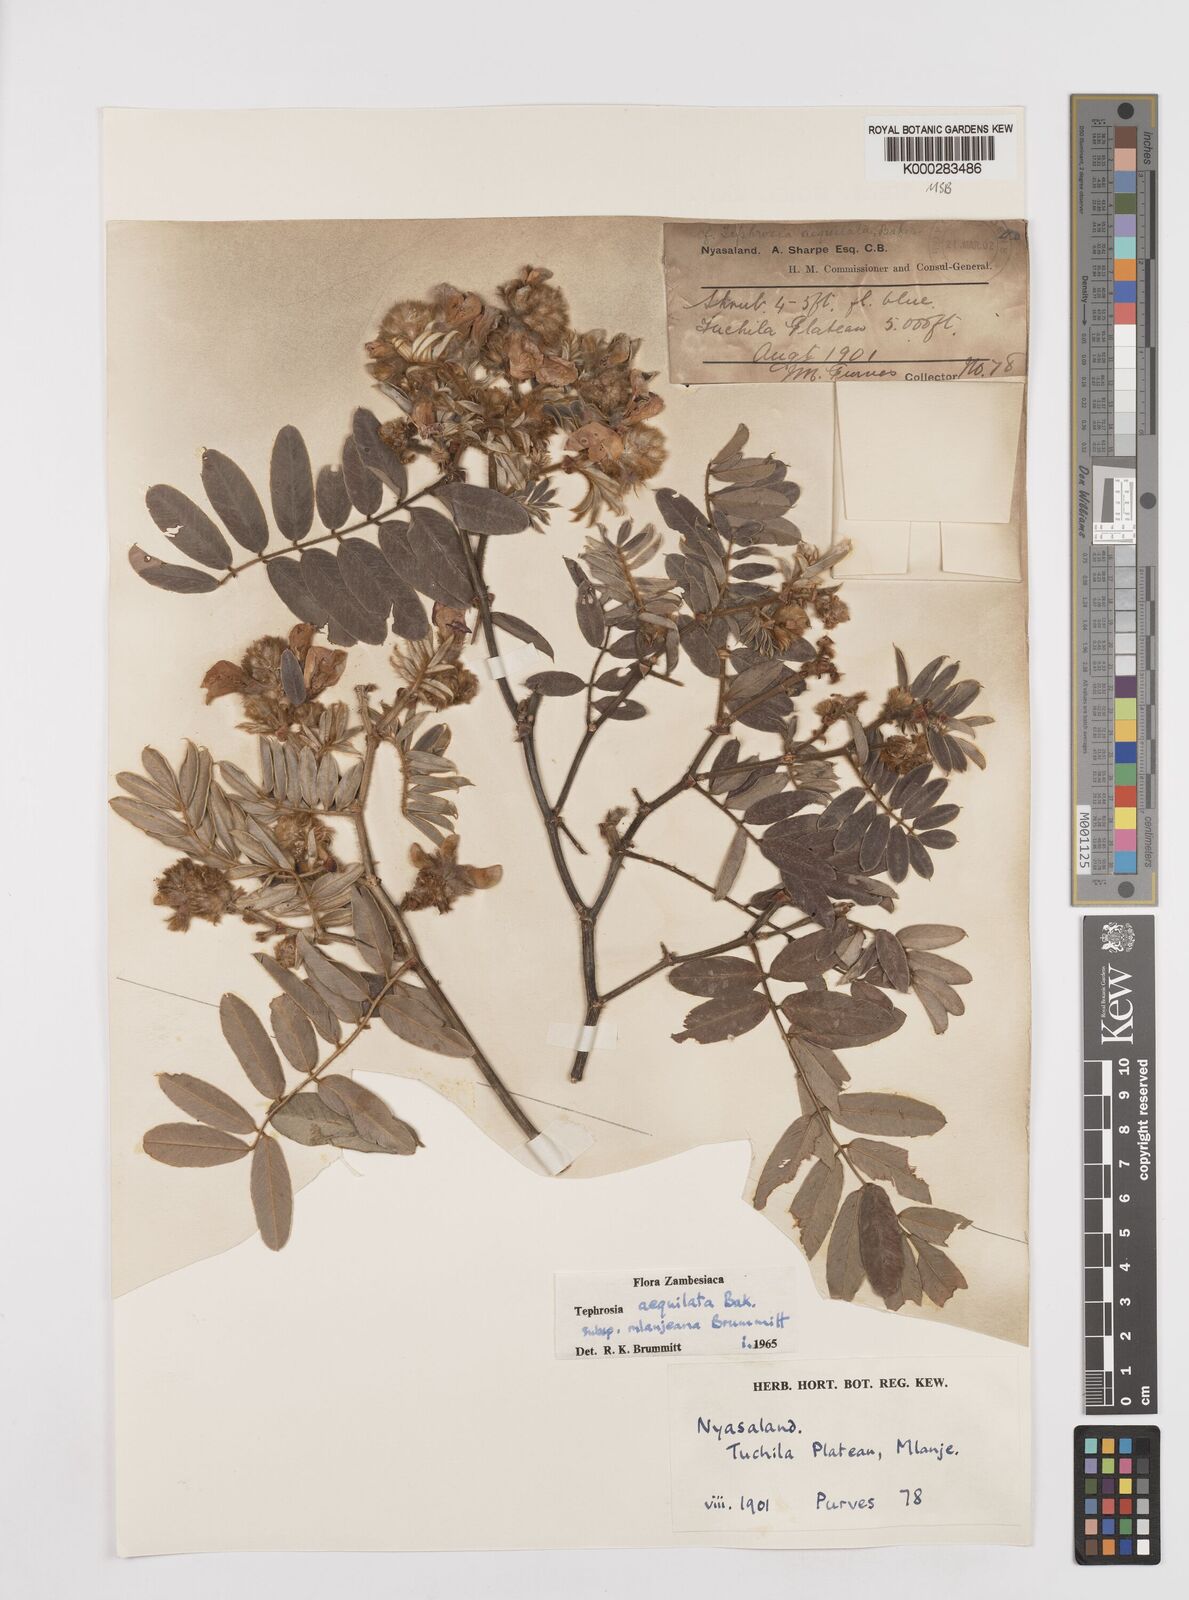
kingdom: Plantae
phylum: Tracheophyta
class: Magnoliopsida
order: Fabales
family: Fabaceae
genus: Tephrosia
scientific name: Tephrosia aequilata
